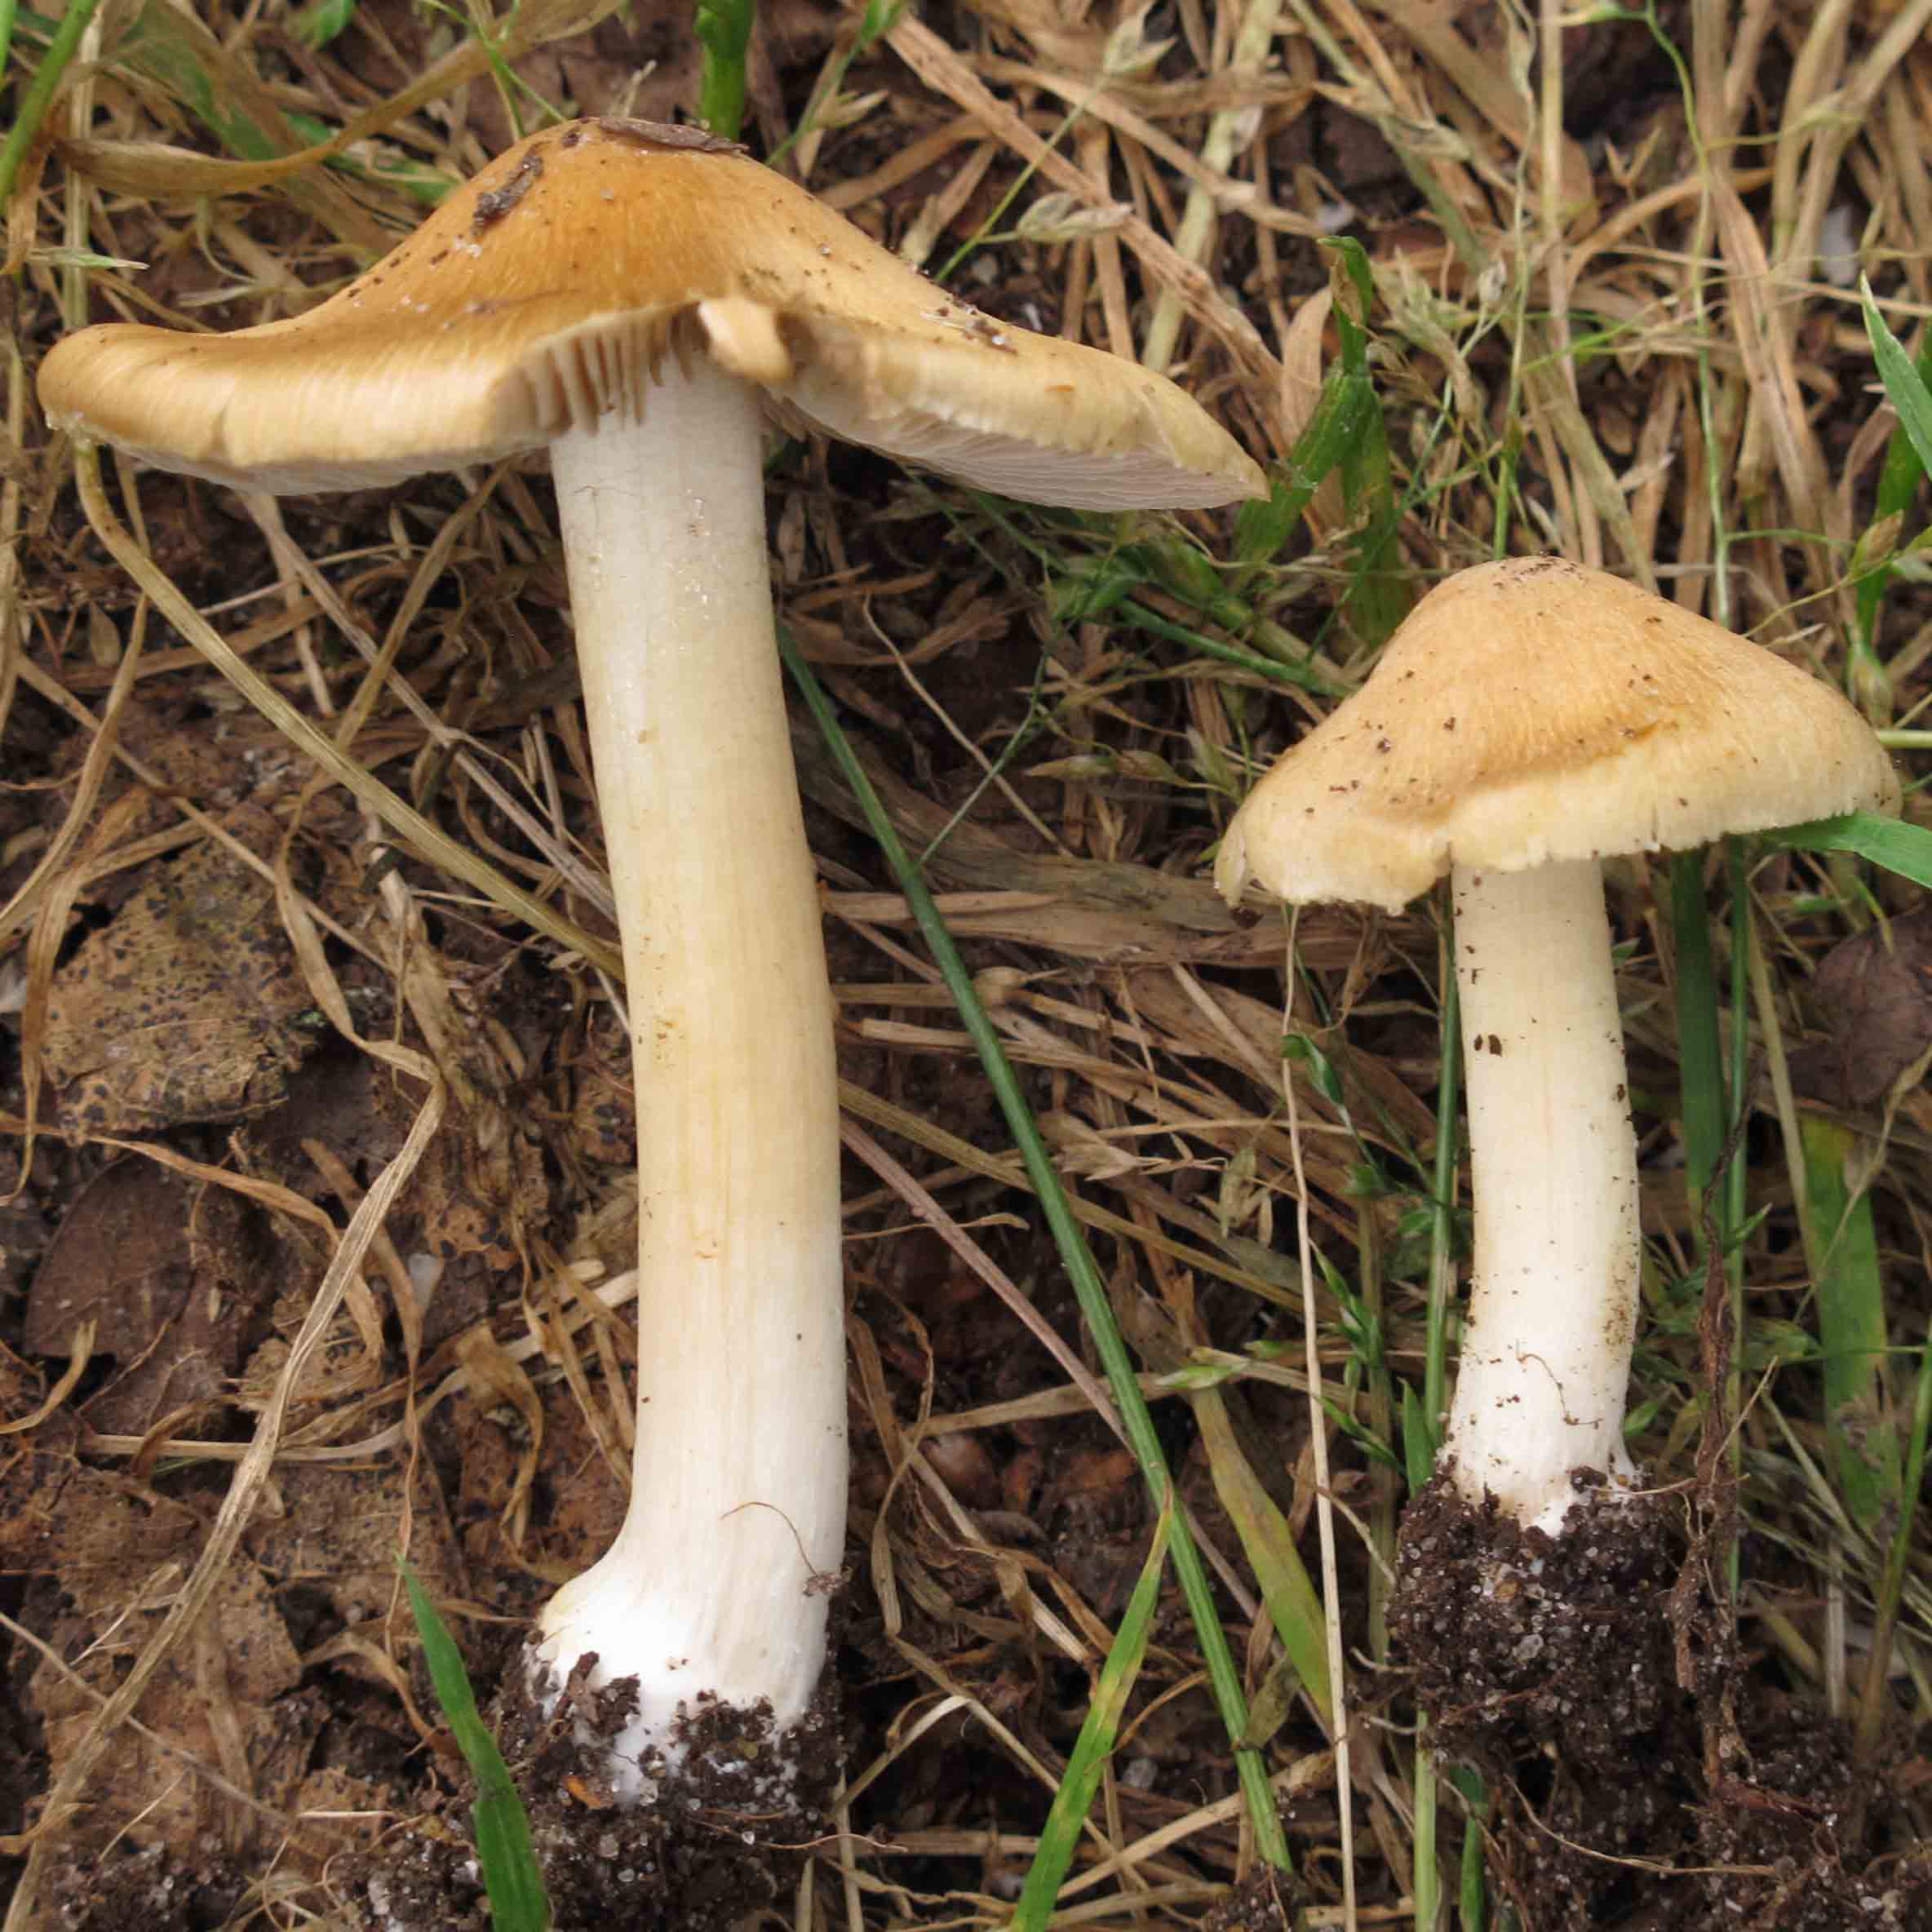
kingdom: Fungi
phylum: Basidiomycota
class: Agaricomycetes
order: Agaricales
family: Inocybaceae
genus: Inosperma
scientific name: Inosperma
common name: strågul trævlhat
